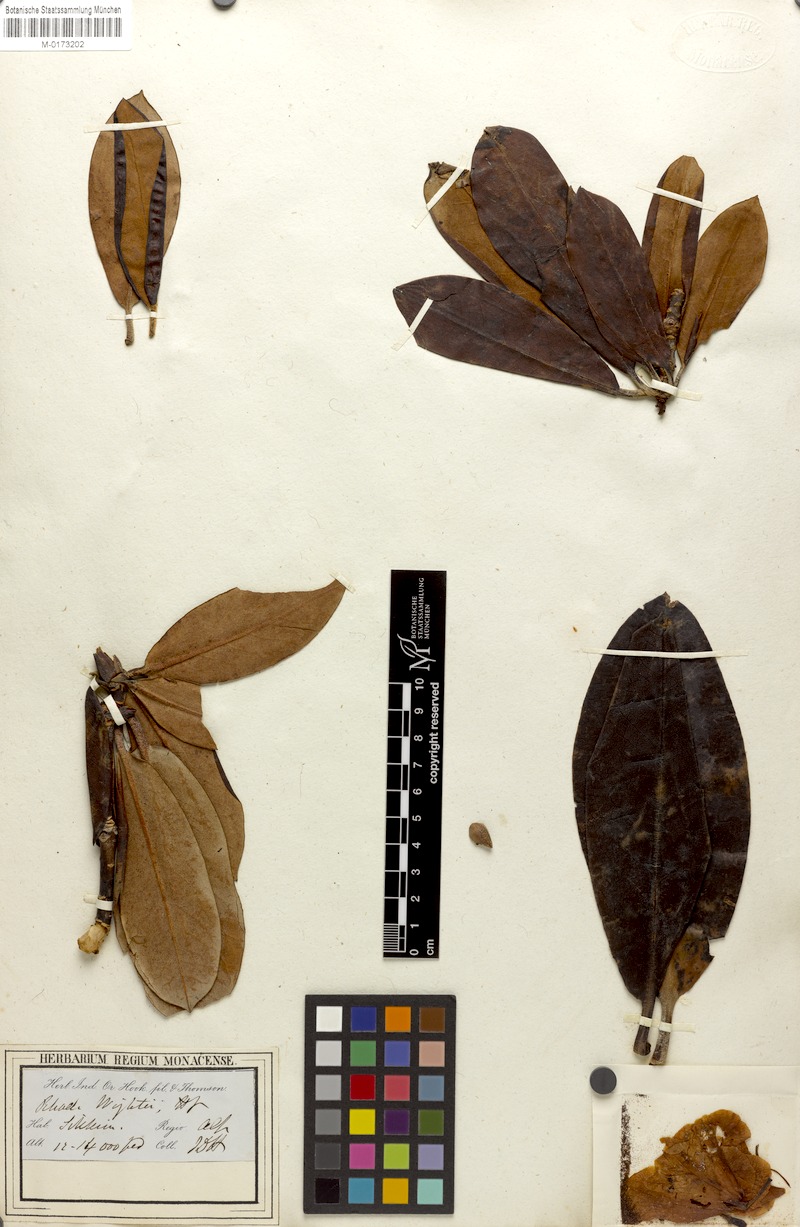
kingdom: Plantae
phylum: Tracheophyta
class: Magnoliopsida
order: Ericales
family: Ericaceae
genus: Rhododendron
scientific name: Rhododendron wightii
